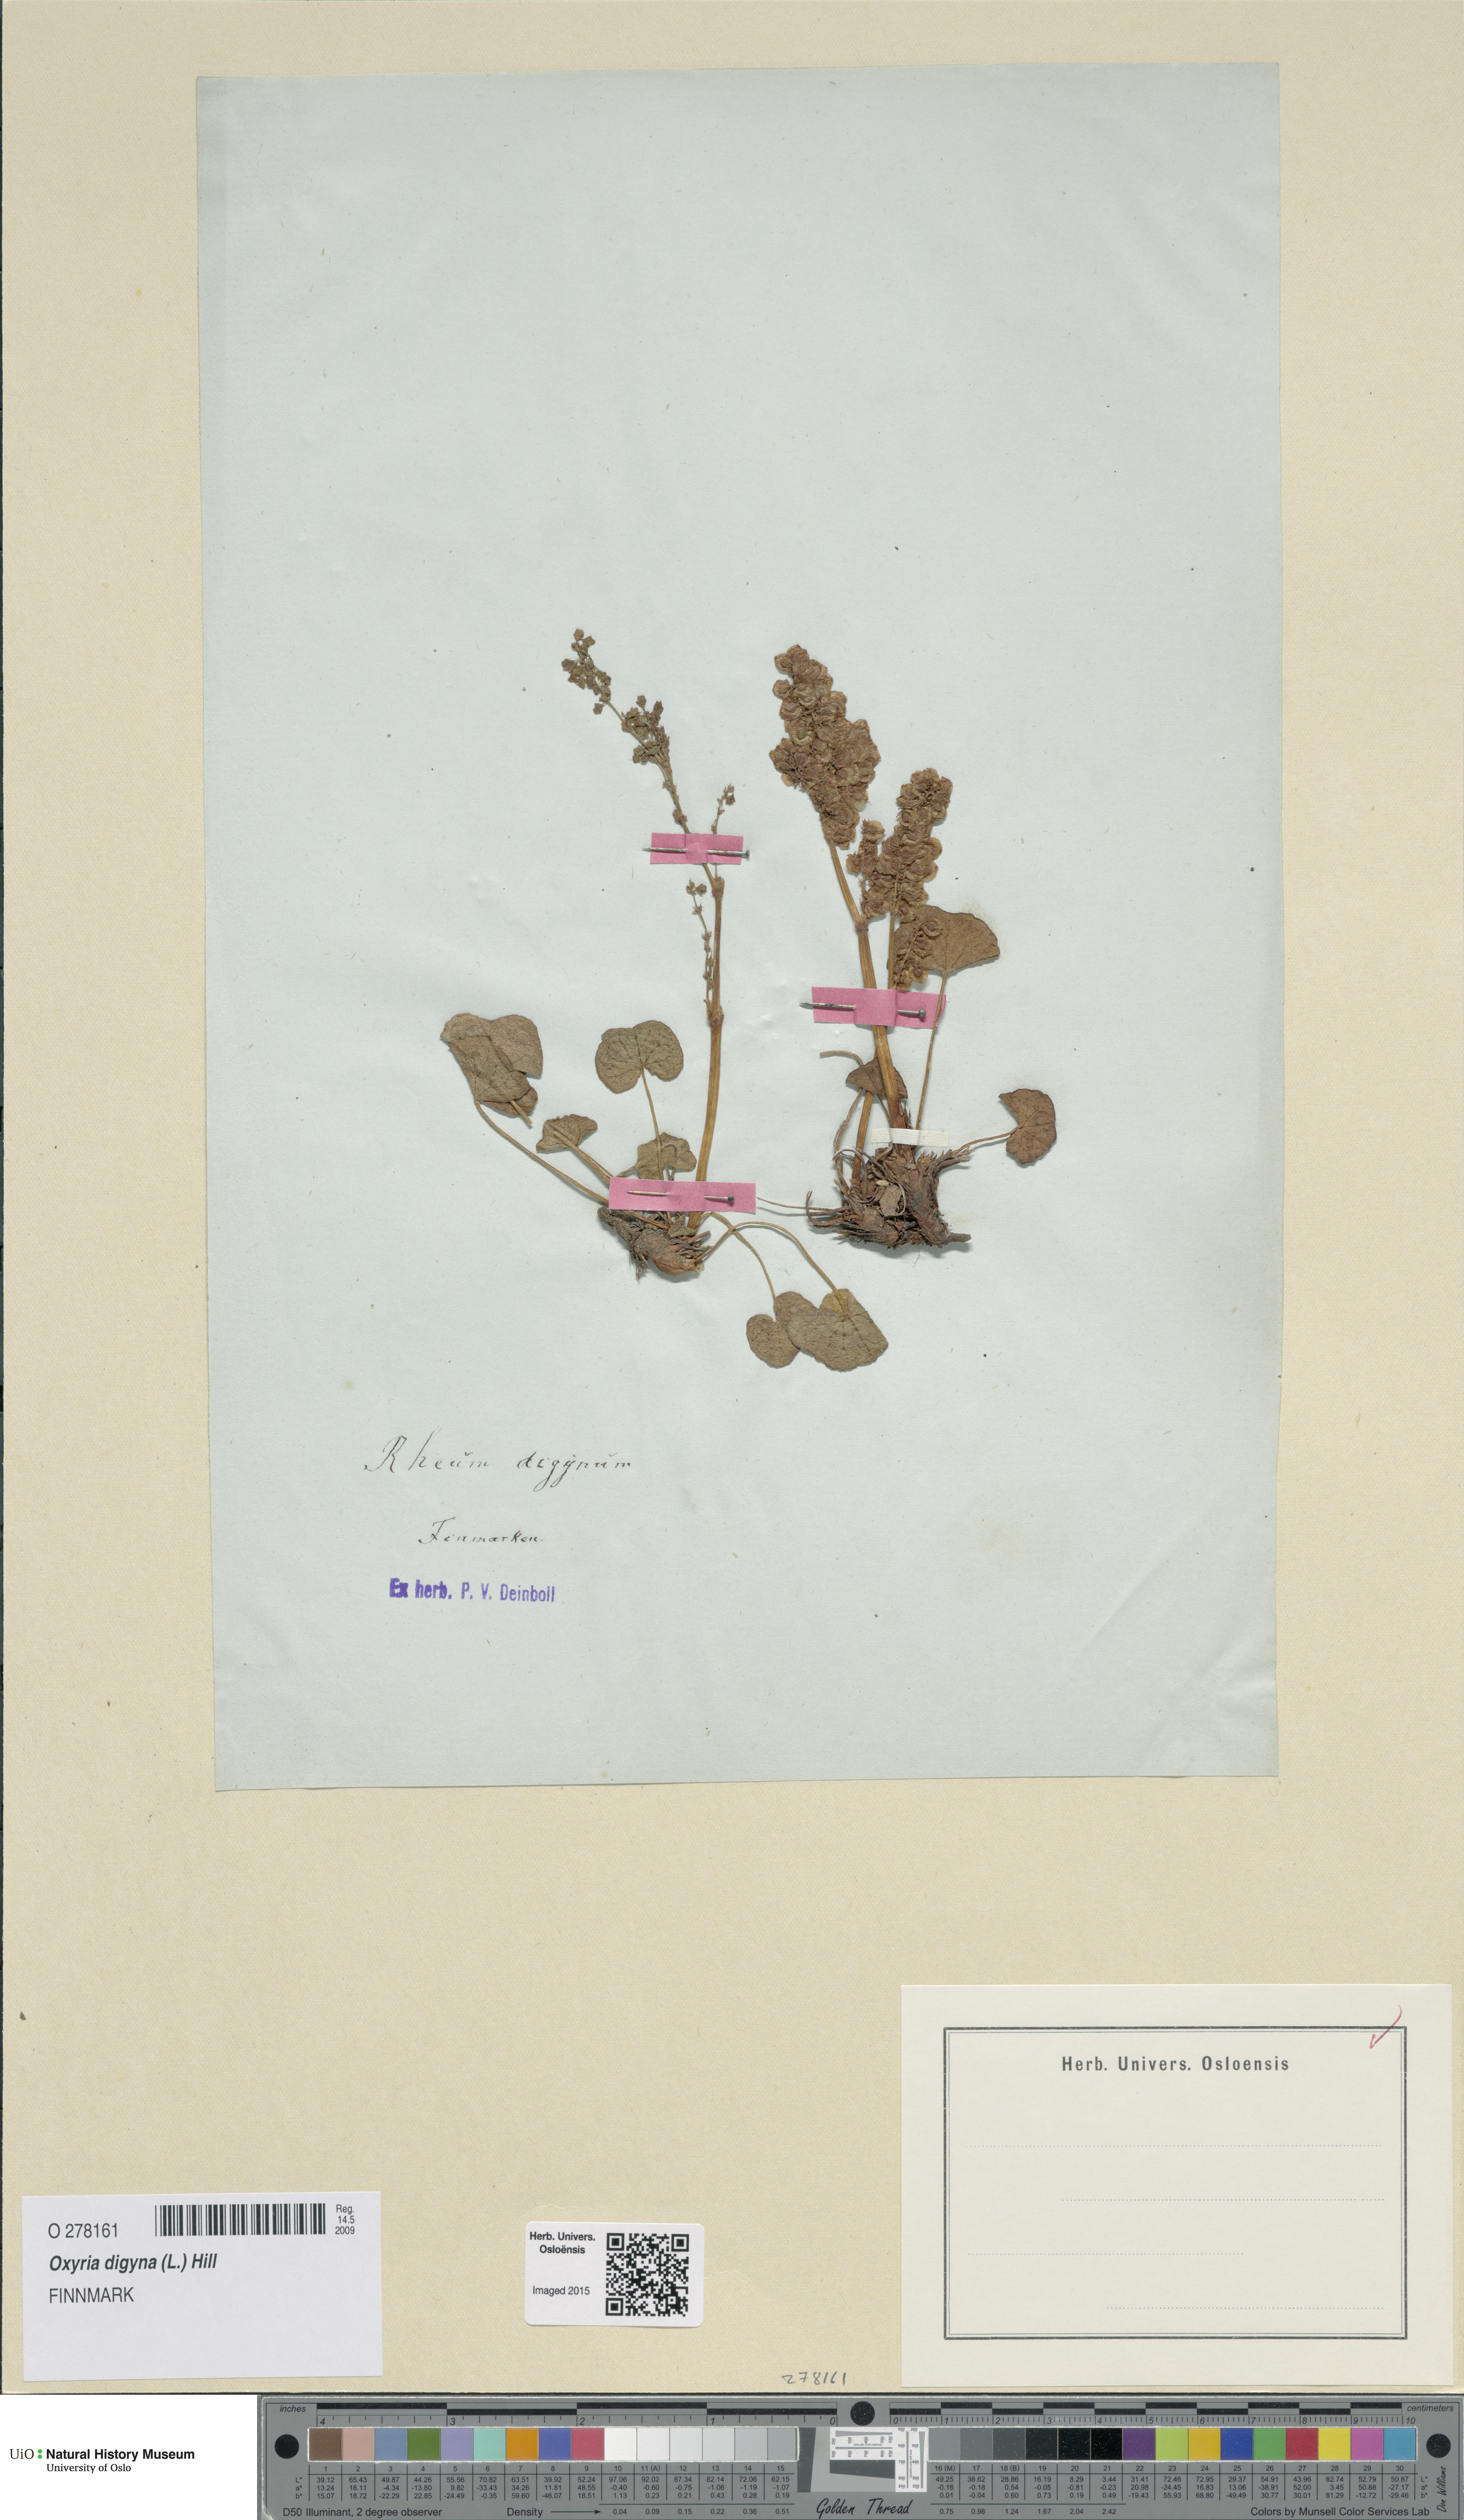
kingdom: Plantae
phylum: Tracheophyta
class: Magnoliopsida
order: Caryophyllales
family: Polygonaceae
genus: Oxyria
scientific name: Oxyria digyna
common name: Alpine mountain-sorrel
